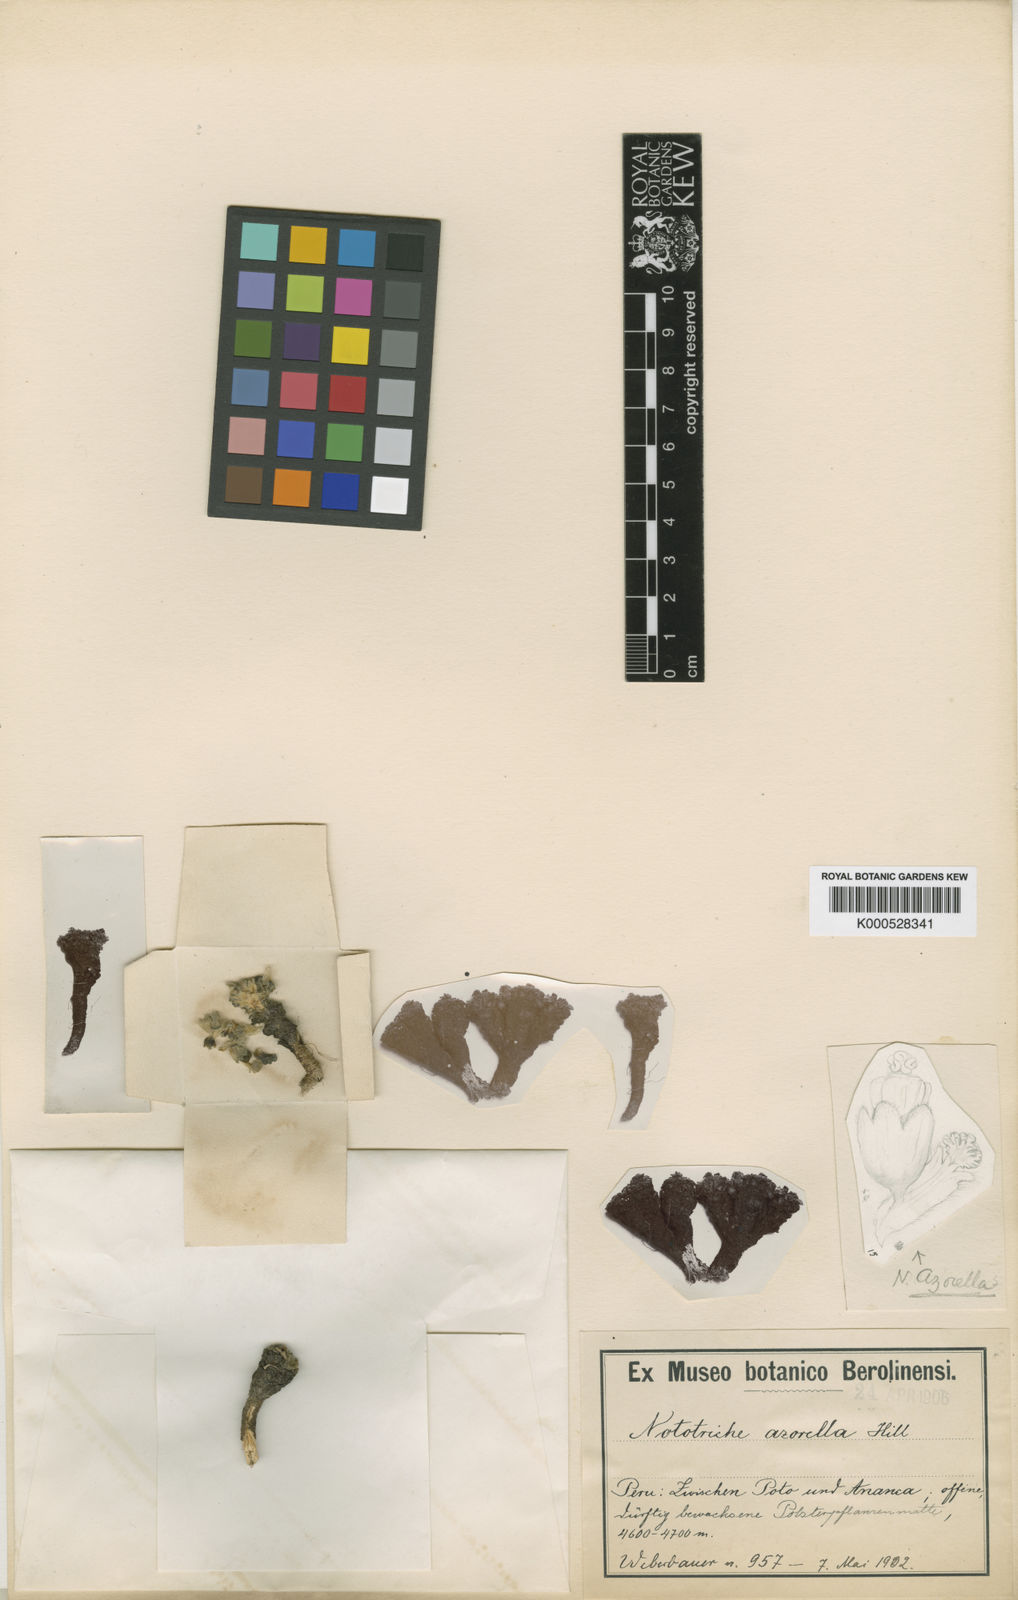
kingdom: Plantae
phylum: Tracheophyta
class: Magnoliopsida
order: Malvales
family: Malvaceae
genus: Nototriche
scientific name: Nototriche azorella
